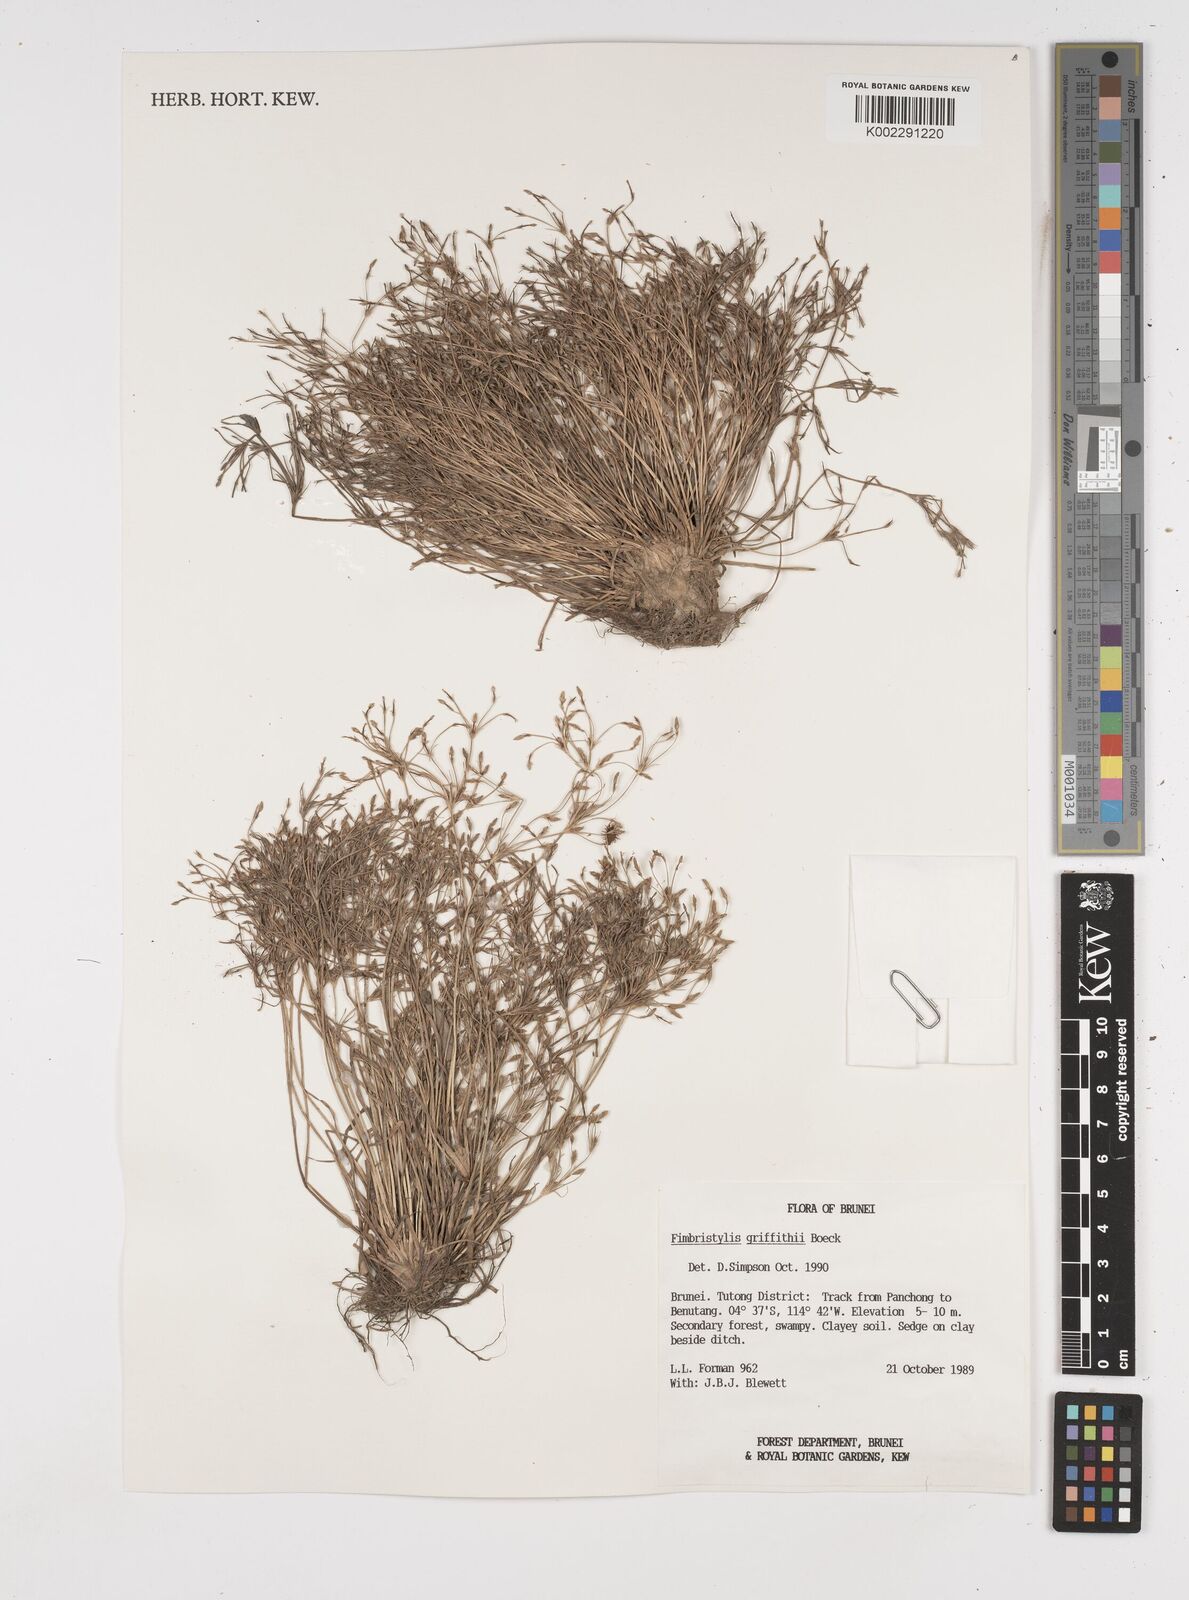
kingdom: Plantae
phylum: Tracheophyta
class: Liliopsida
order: Poales
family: Cyperaceae
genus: Fimbristylis
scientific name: Fimbristylis griffithii
